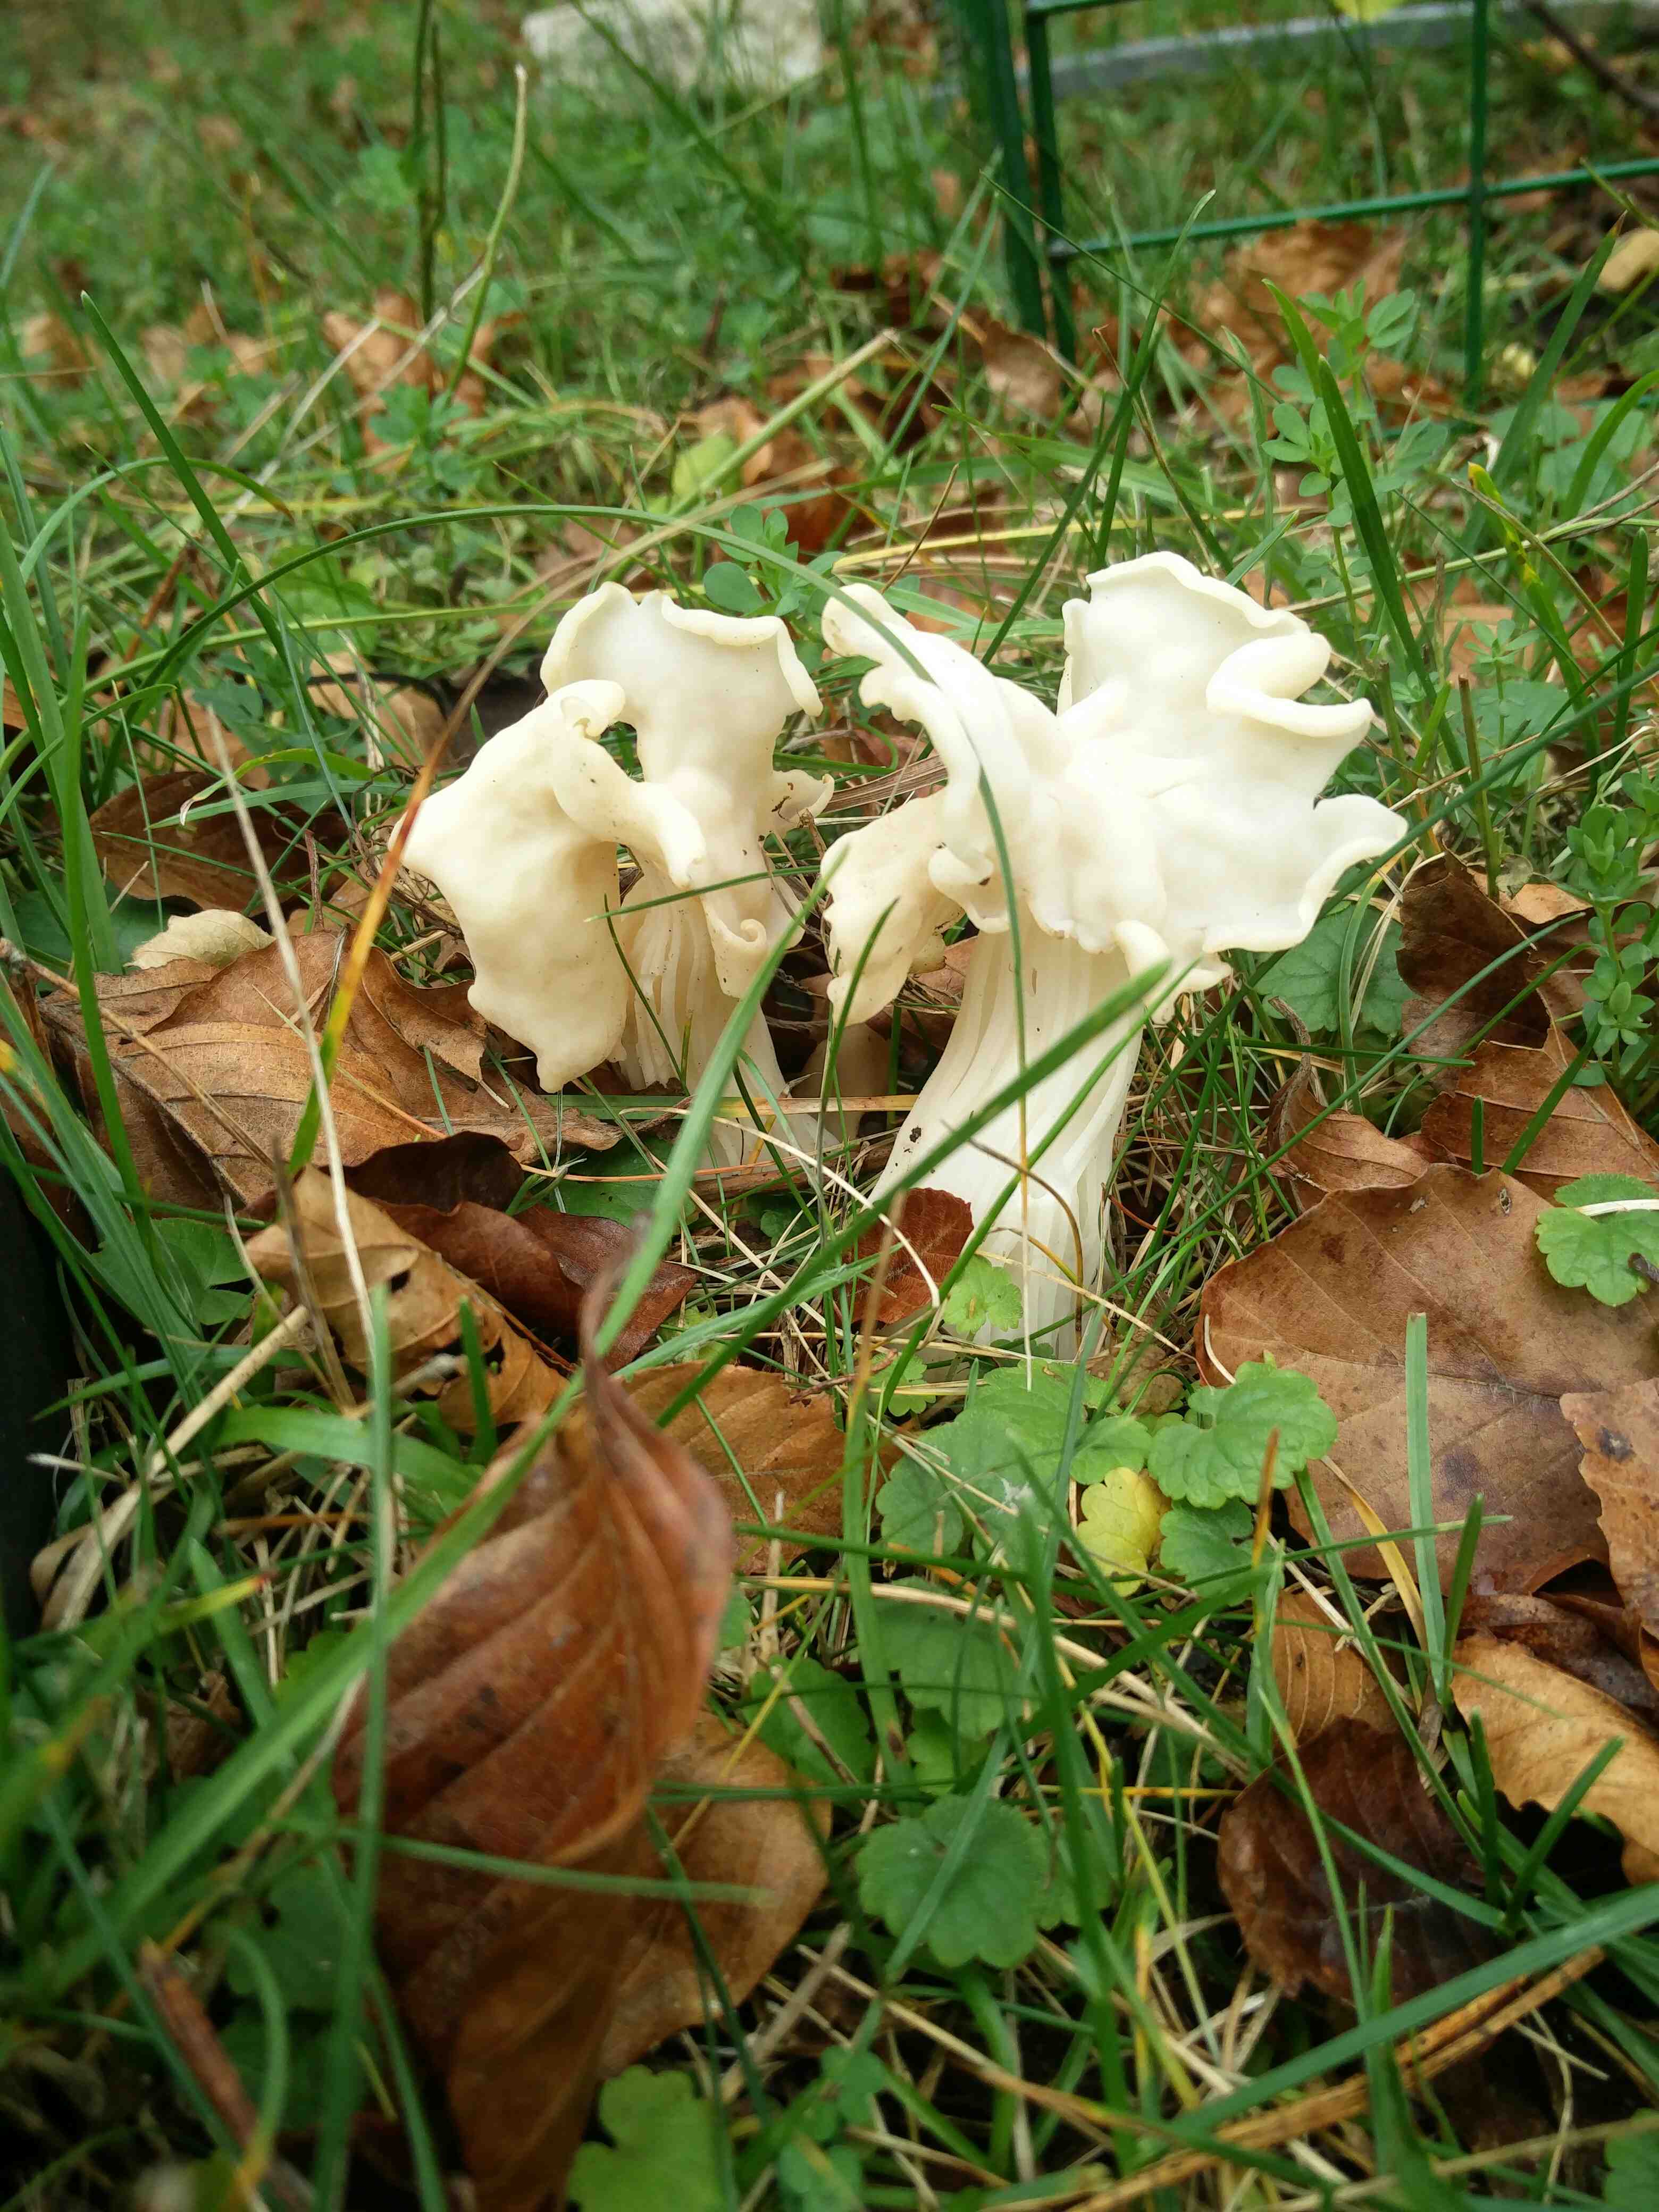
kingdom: Fungi
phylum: Ascomycota
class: Pezizomycetes
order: Pezizales
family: Helvellaceae
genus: Helvella
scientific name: Helvella crispa
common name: kruset foldhat
